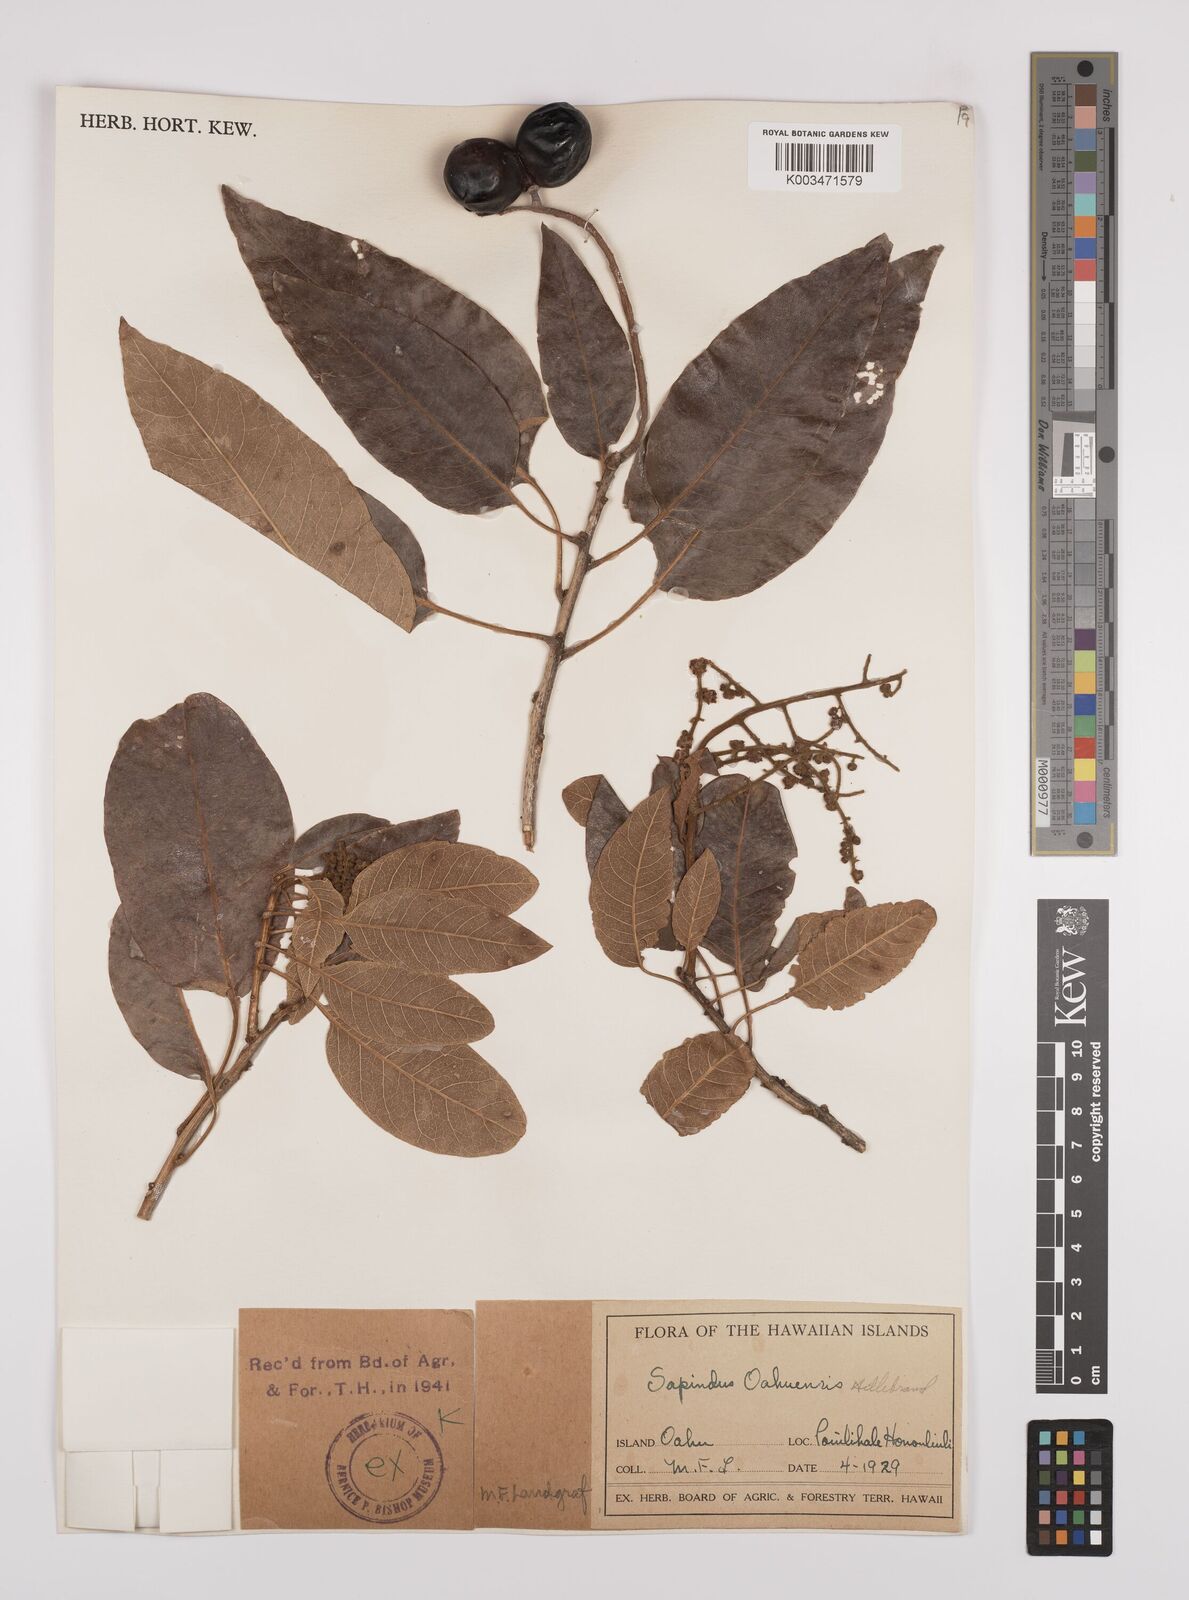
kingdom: Plantae
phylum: Tracheophyta
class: Magnoliopsida
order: Sapindales
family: Sapindaceae
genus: Sapindus
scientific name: Sapindus oahuensis
